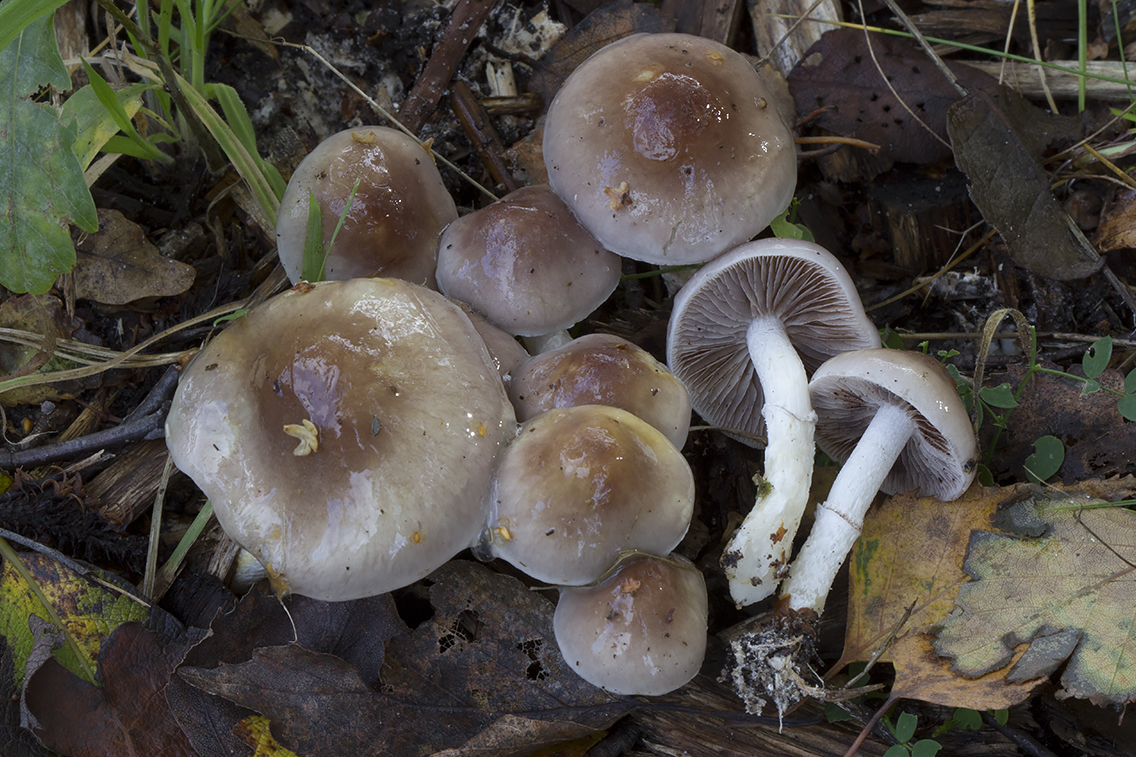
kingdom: Fungi
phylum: Basidiomycota
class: Agaricomycetes
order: Agaricales
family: Strophariaceae
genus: Stropharia
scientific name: Stropharia inuncta
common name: lillabrun bredblad
